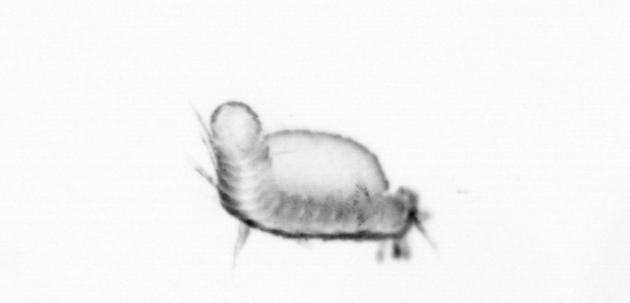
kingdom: Animalia
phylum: Annelida
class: Polychaeta
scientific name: Polychaeta
